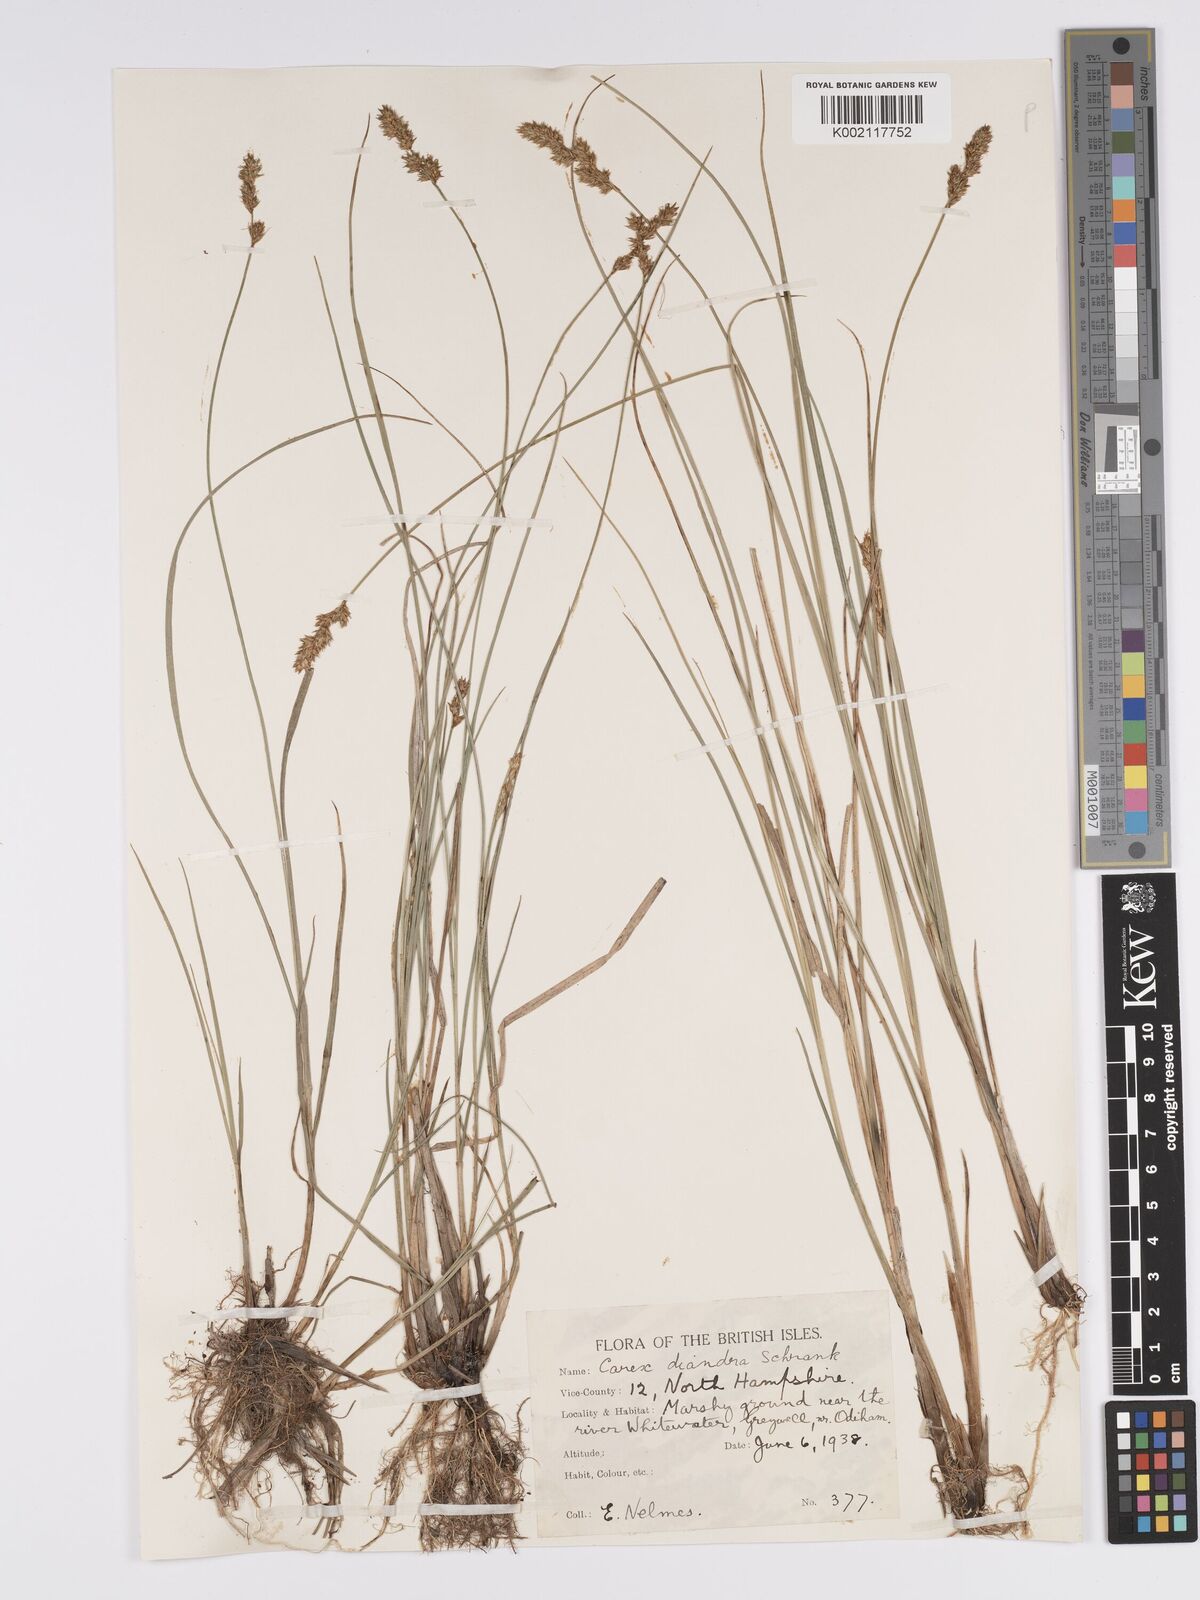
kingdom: Plantae
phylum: Tracheophyta
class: Liliopsida
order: Poales
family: Cyperaceae
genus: Carex
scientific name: Carex diandra
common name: Lesser tussock-sedge
